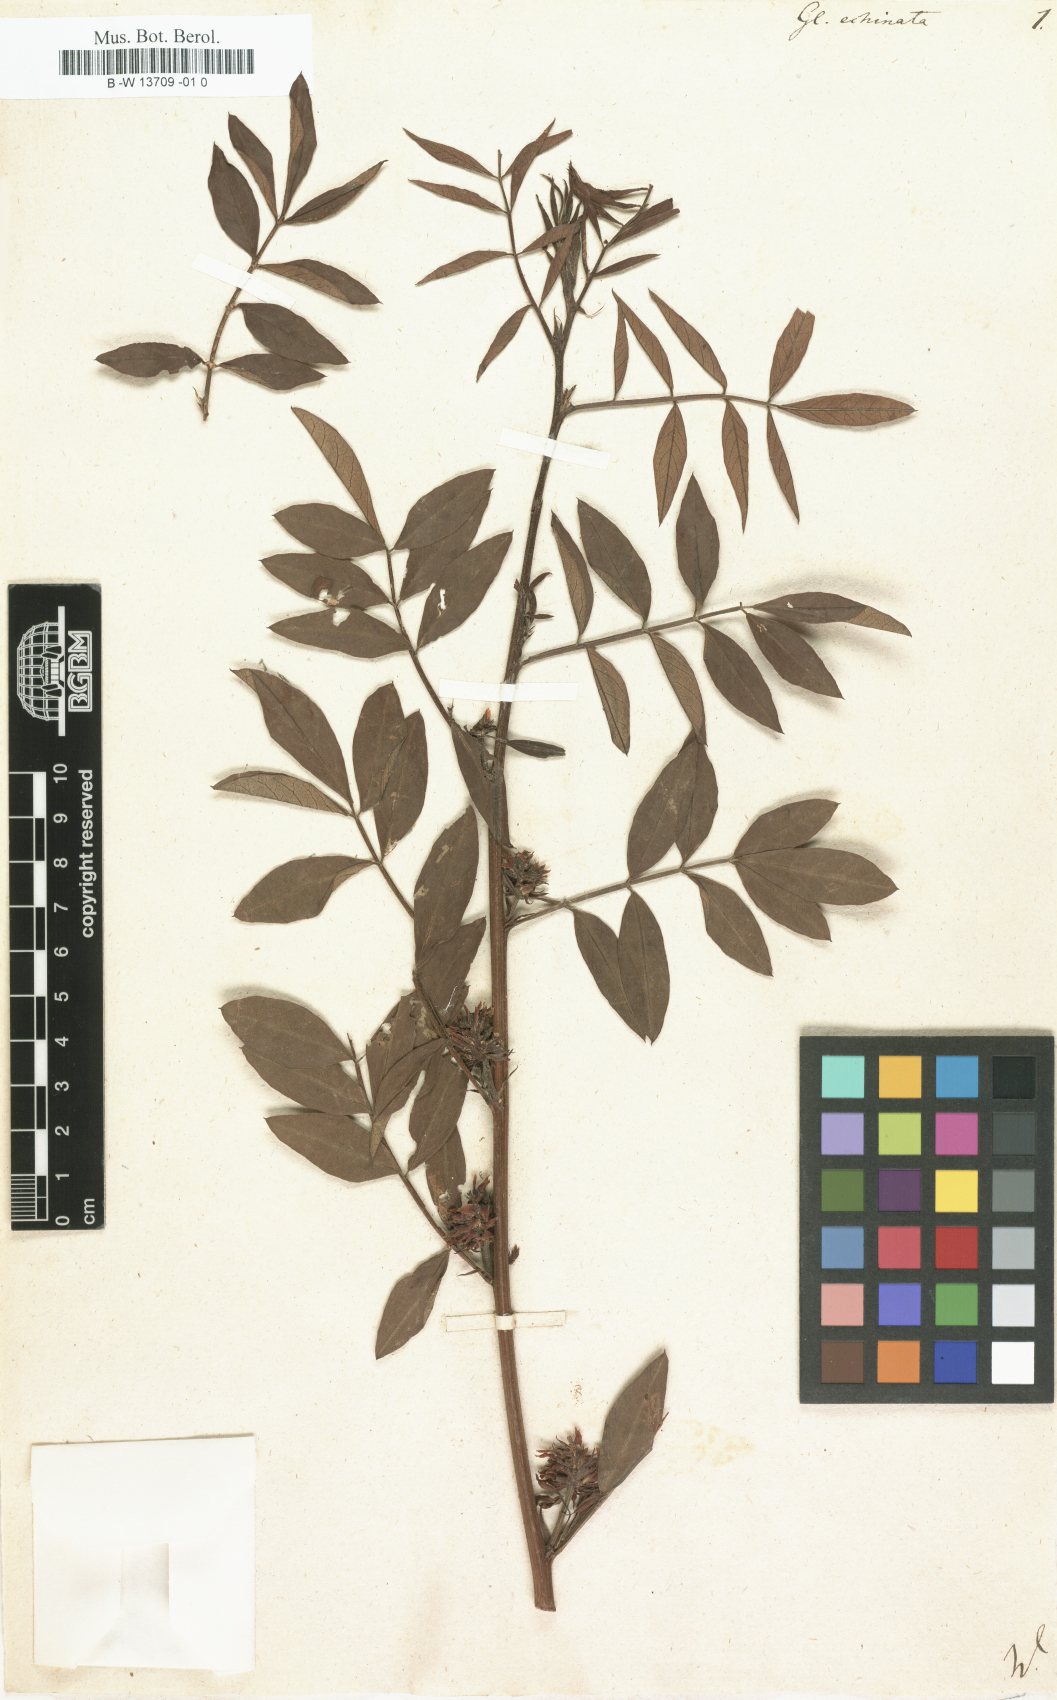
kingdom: Plantae
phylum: Tracheophyta
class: Magnoliopsida
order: Fabales
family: Fabaceae
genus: Glycyrrhiza
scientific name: Glycyrrhiza echinata
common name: German liquorice
